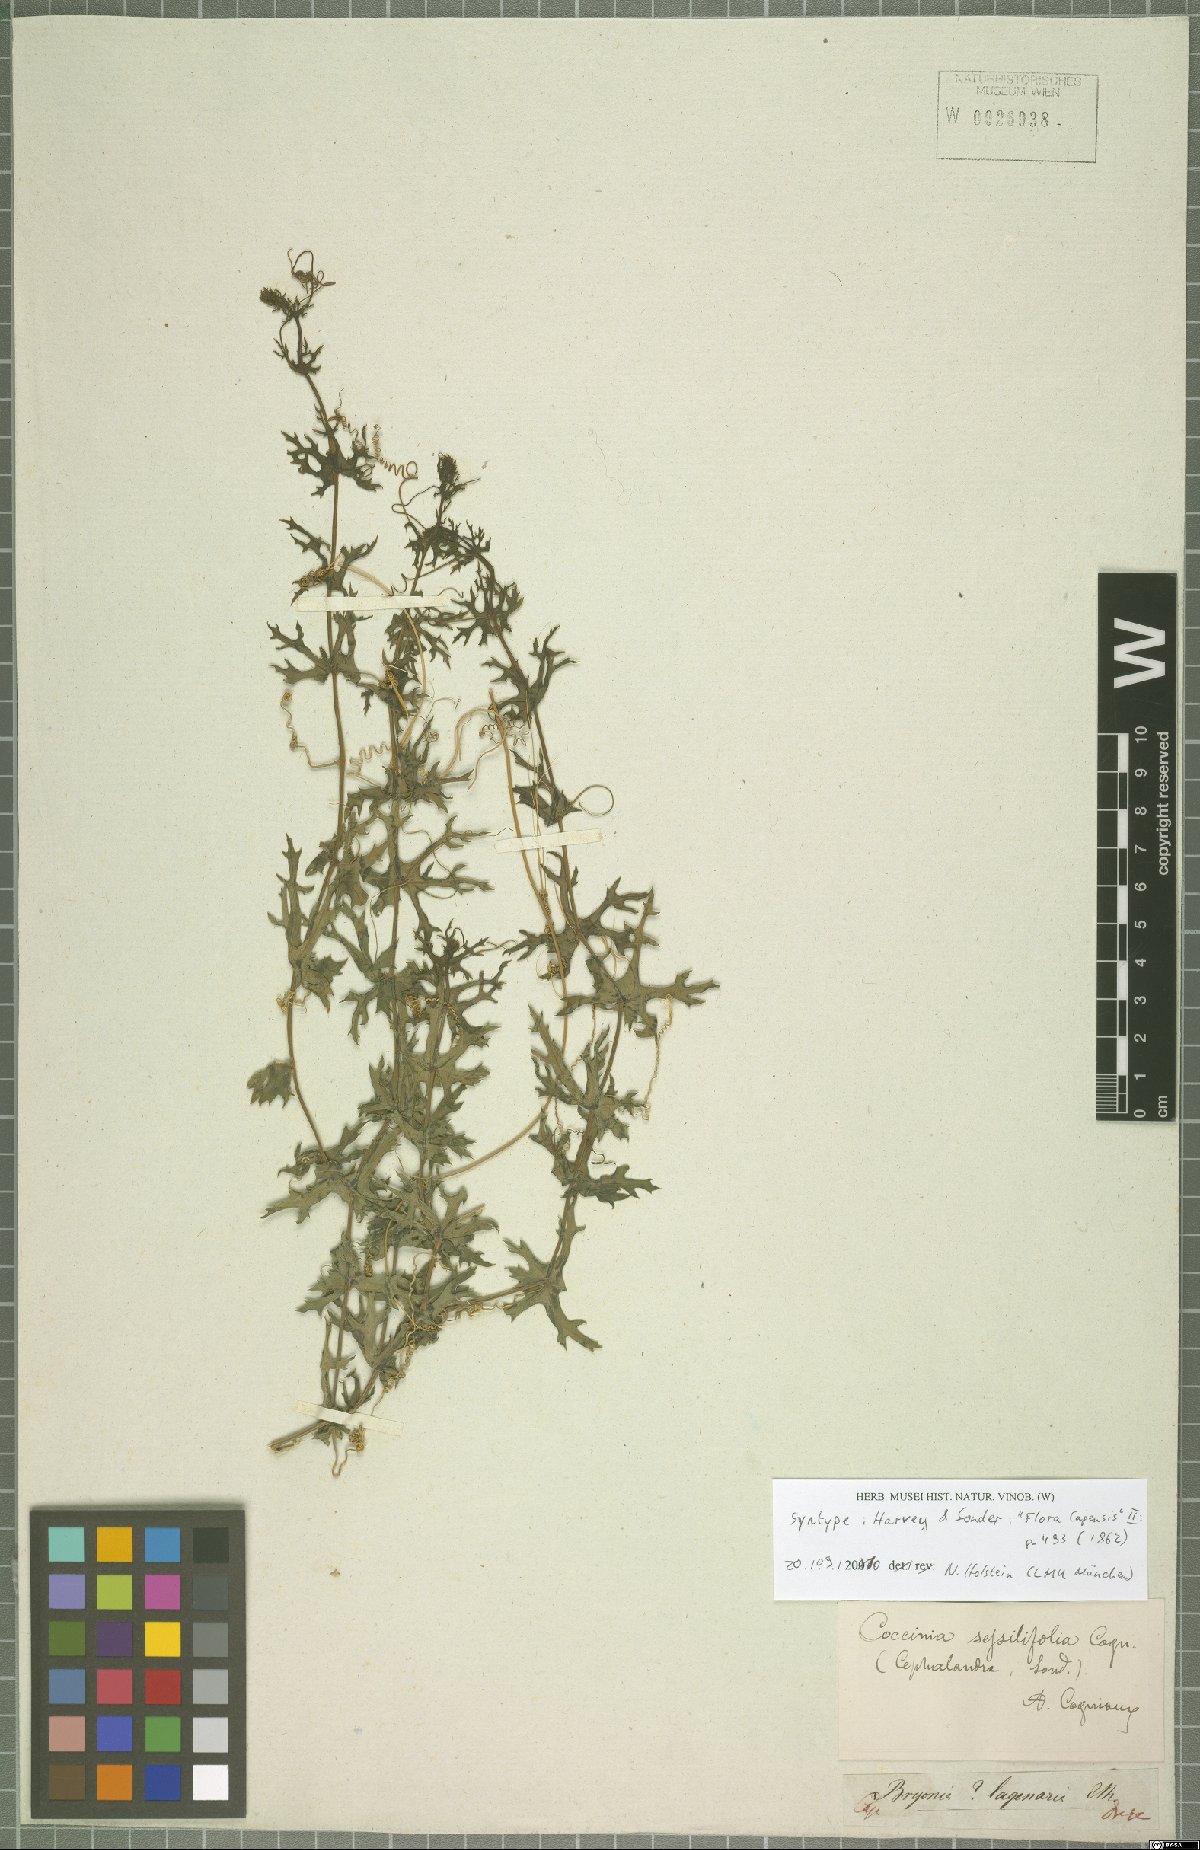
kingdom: Plantae
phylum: Tracheophyta
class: Magnoliopsida
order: Cucurbitales
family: Cucurbitaceae
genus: Coccinia
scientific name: Coccinia sessilifolia
